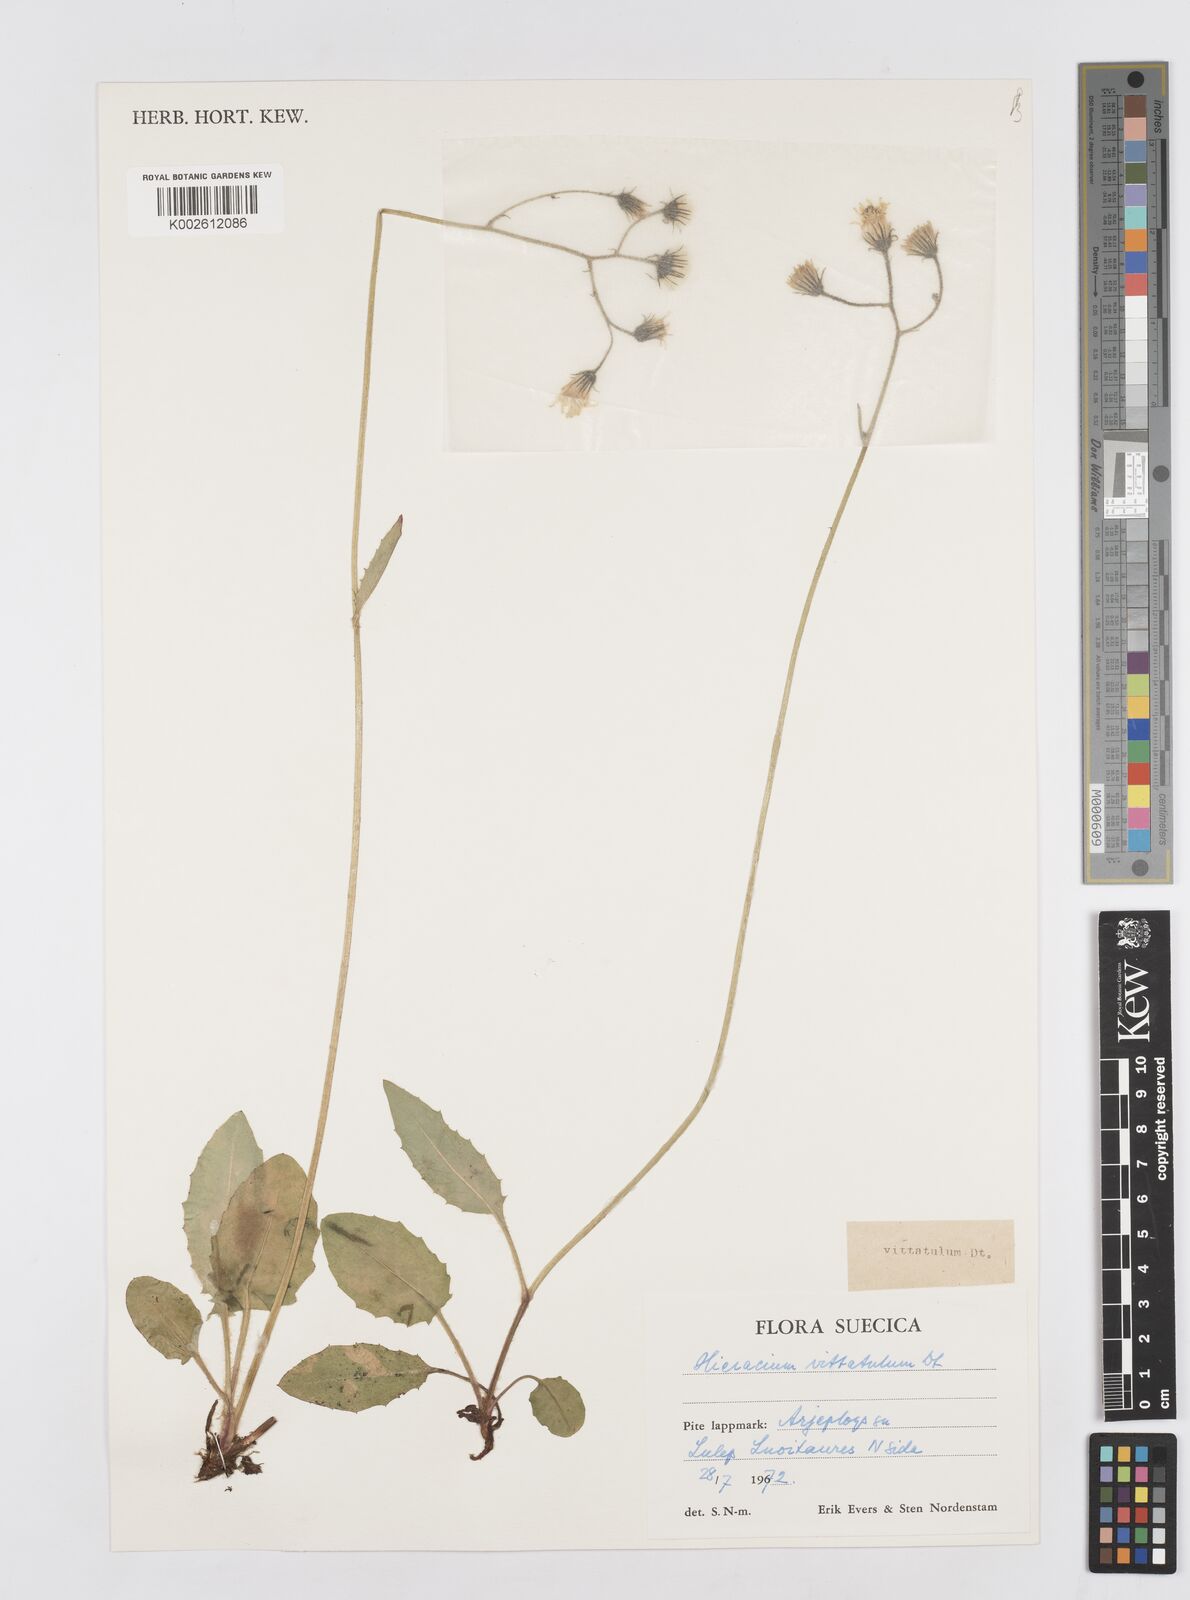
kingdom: Plantae
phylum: Tracheophyta
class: Magnoliopsida
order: Asterales
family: Asteraceae
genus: Hieracium
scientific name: Hieracium vittatulum
